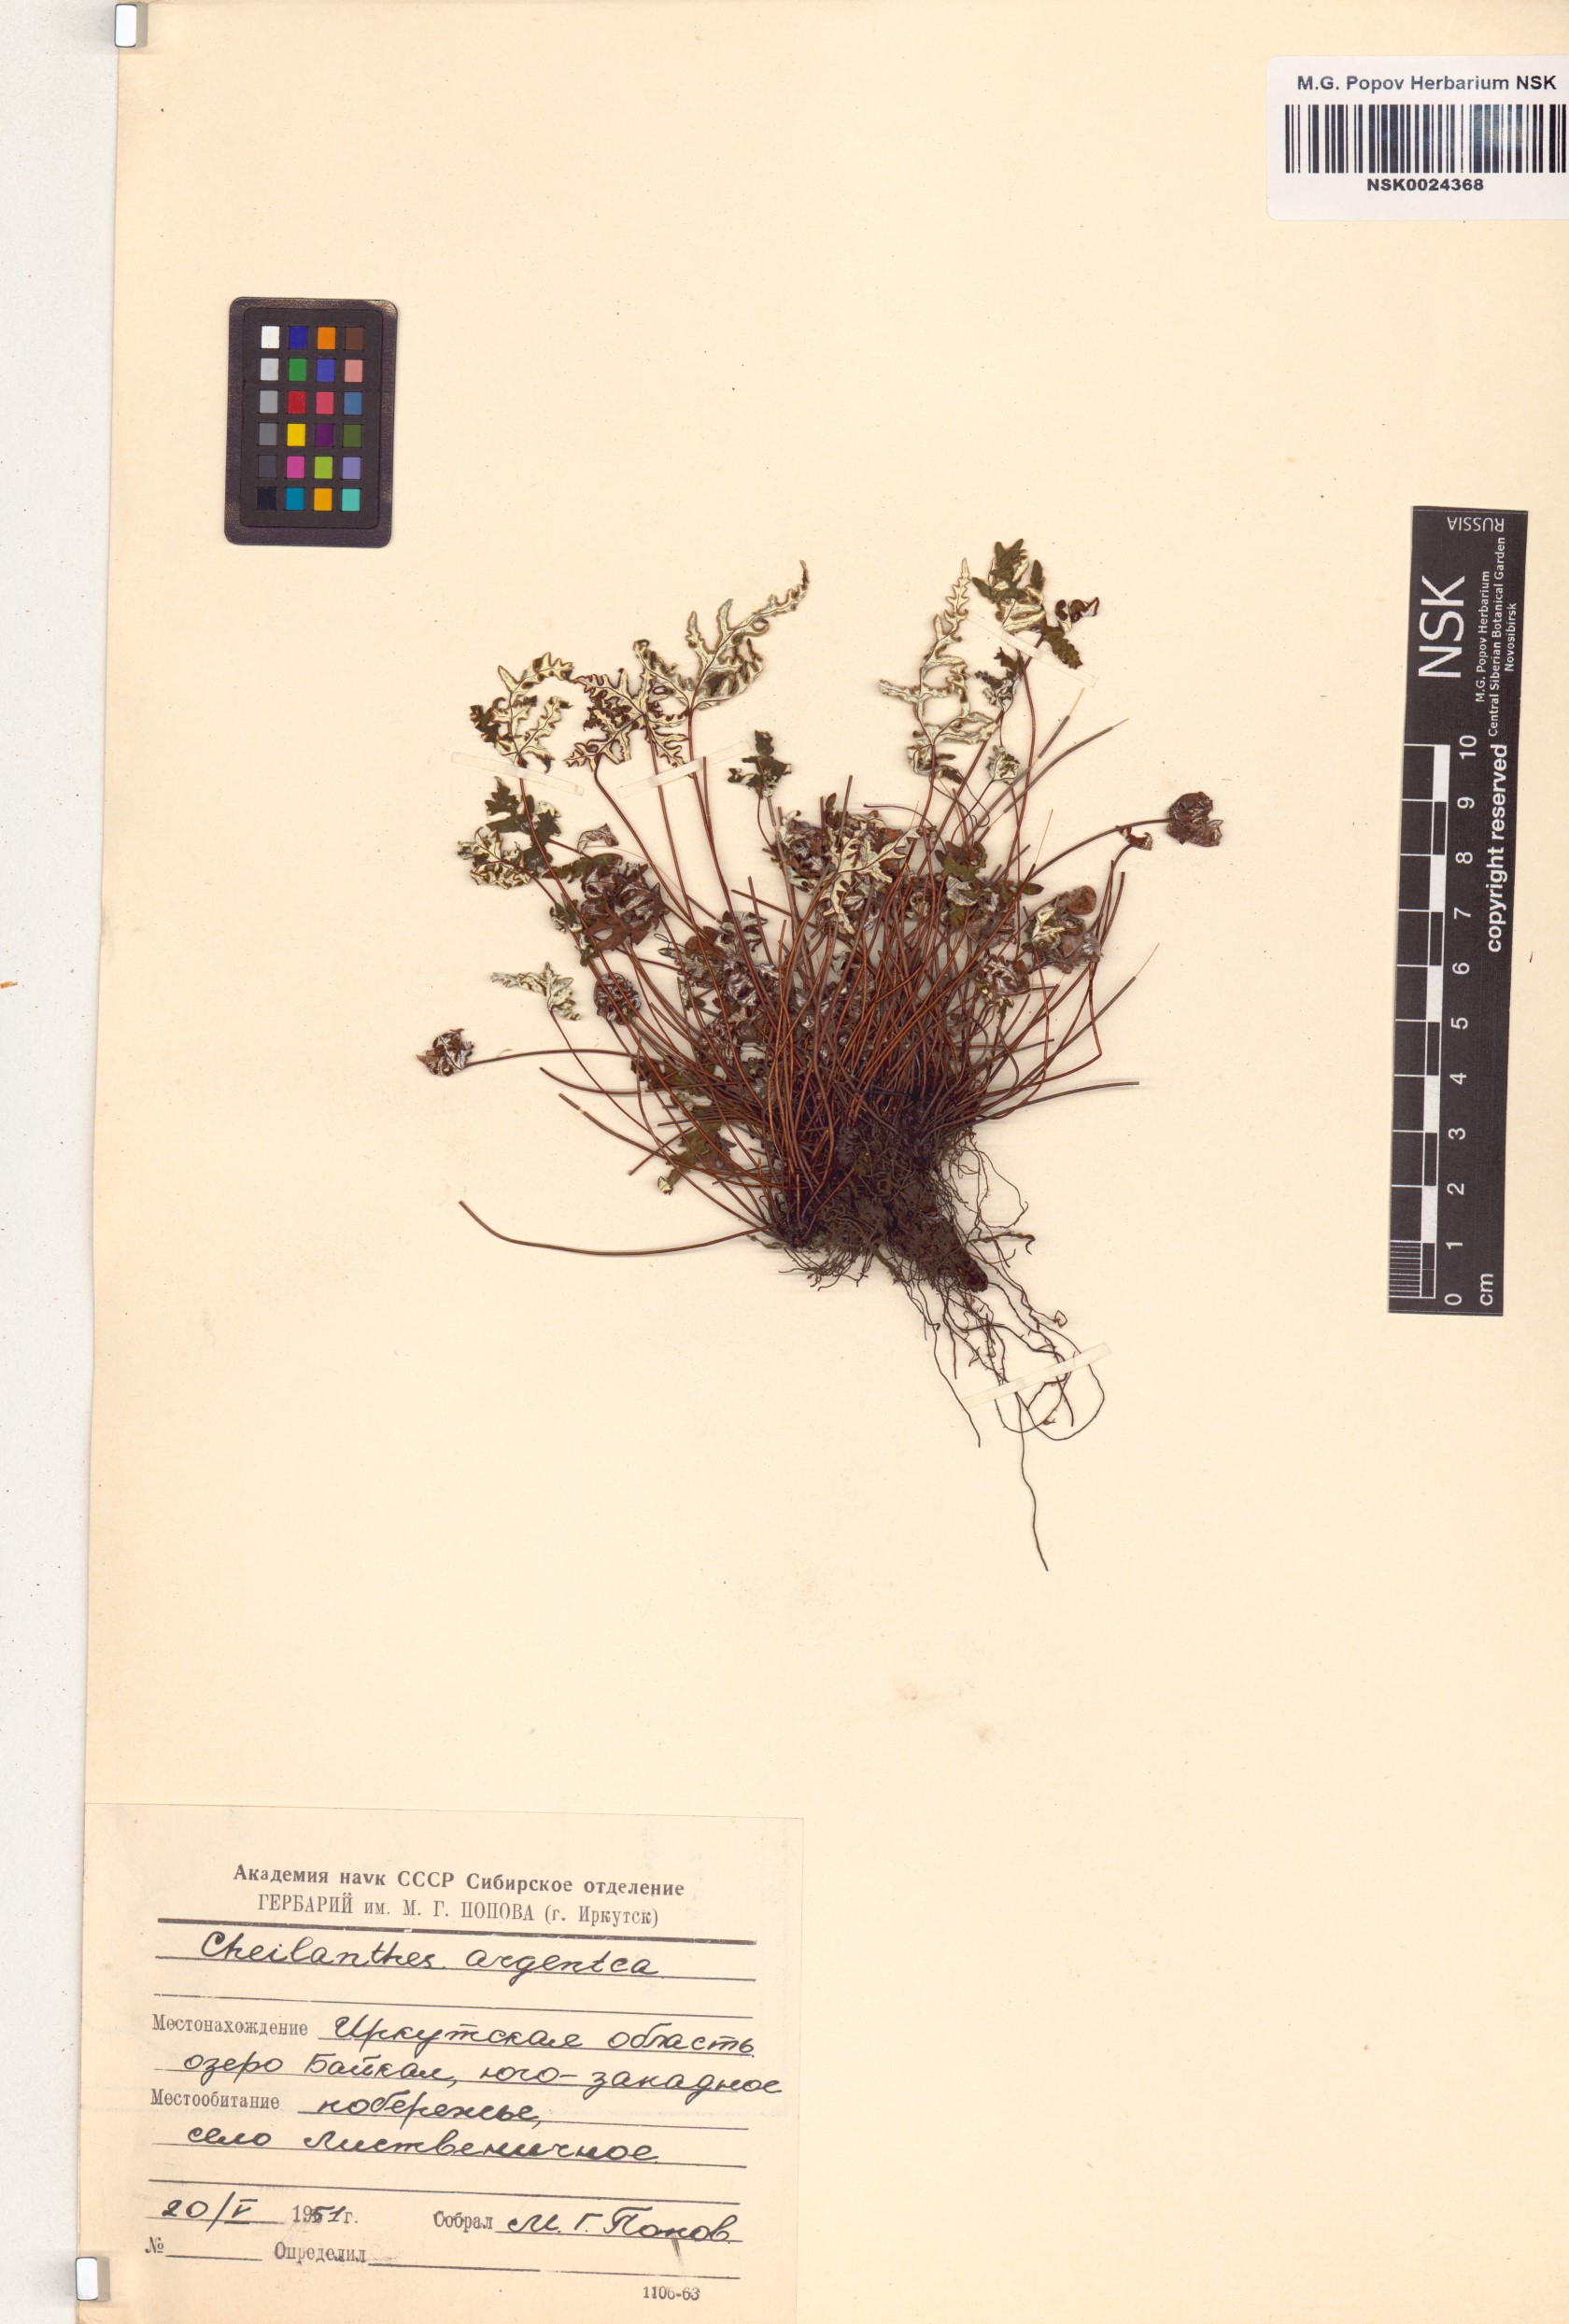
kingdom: Plantae
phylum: Tracheophyta
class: Polypodiopsida
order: Polypodiales
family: Pteridaceae
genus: Aleuritopteris
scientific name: Aleuritopteris argentea
